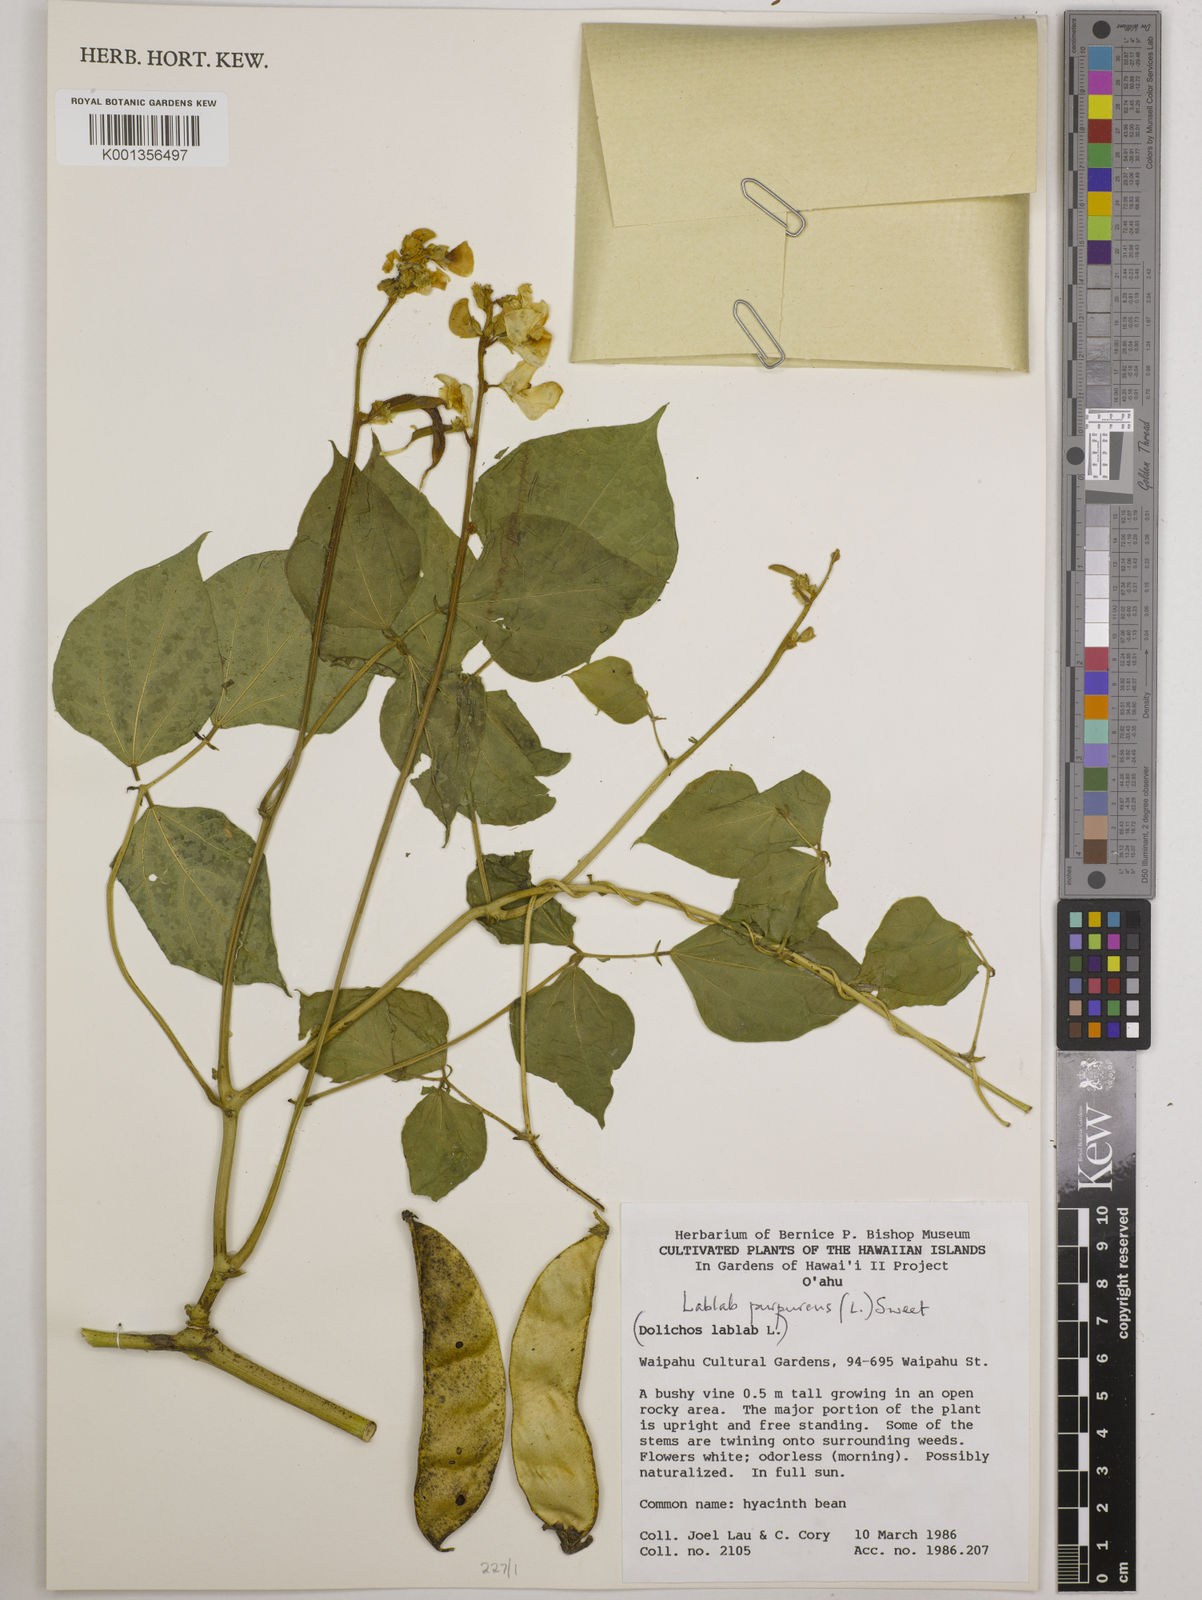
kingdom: Plantae
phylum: Tracheophyta
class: Magnoliopsida
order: Fabales
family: Fabaceae
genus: Lablab
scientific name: Lablab purpureus
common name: Lablab-bean
